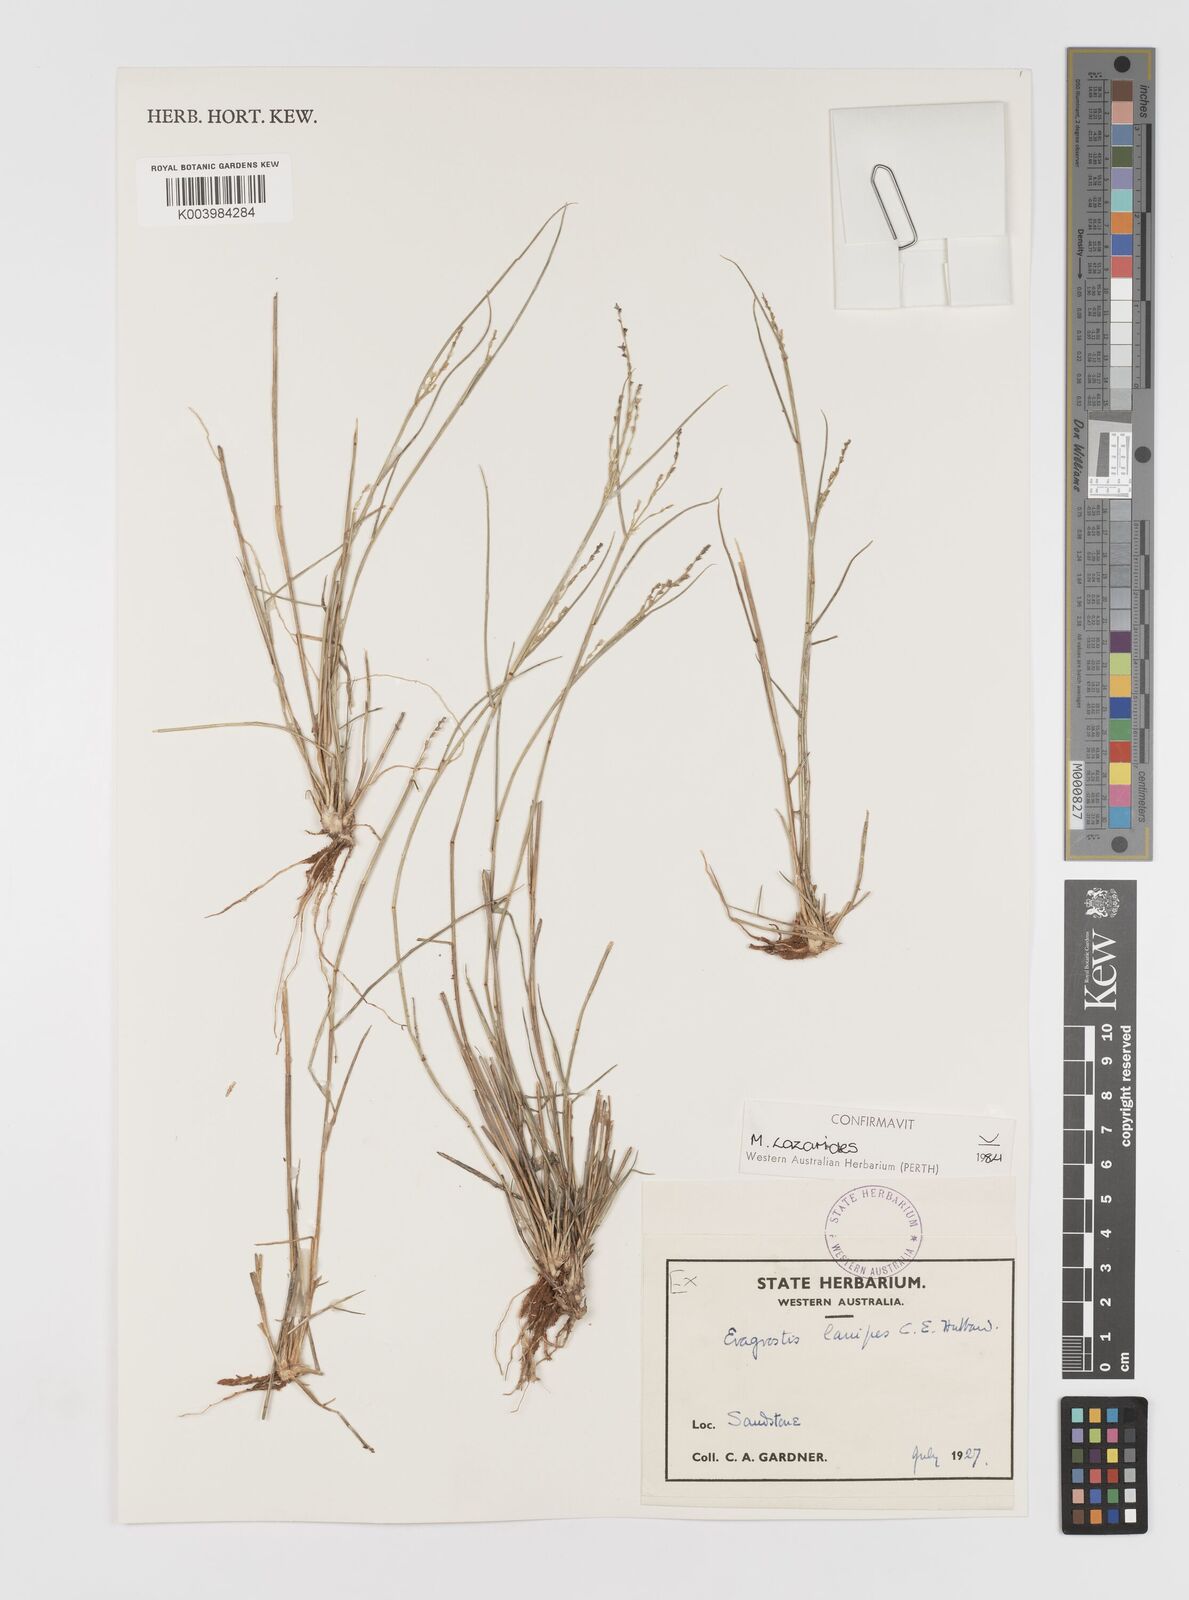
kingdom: Plantae
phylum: Tracheophyta
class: Liliopsida
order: Poales
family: Poaceae
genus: Eragrostis
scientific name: Eragrostis lanipes
